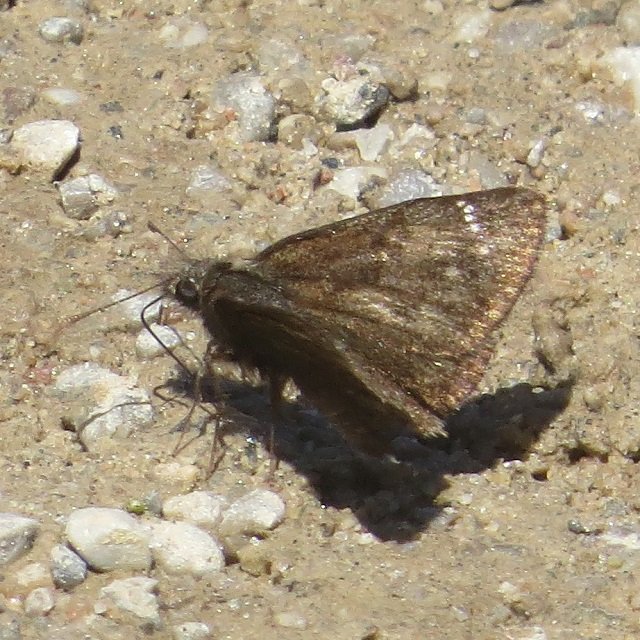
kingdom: Animalia
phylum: Arthropoda
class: Insecta
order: Lepidoptera
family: Hesperiidae
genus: Erynnis
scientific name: Erynnis
